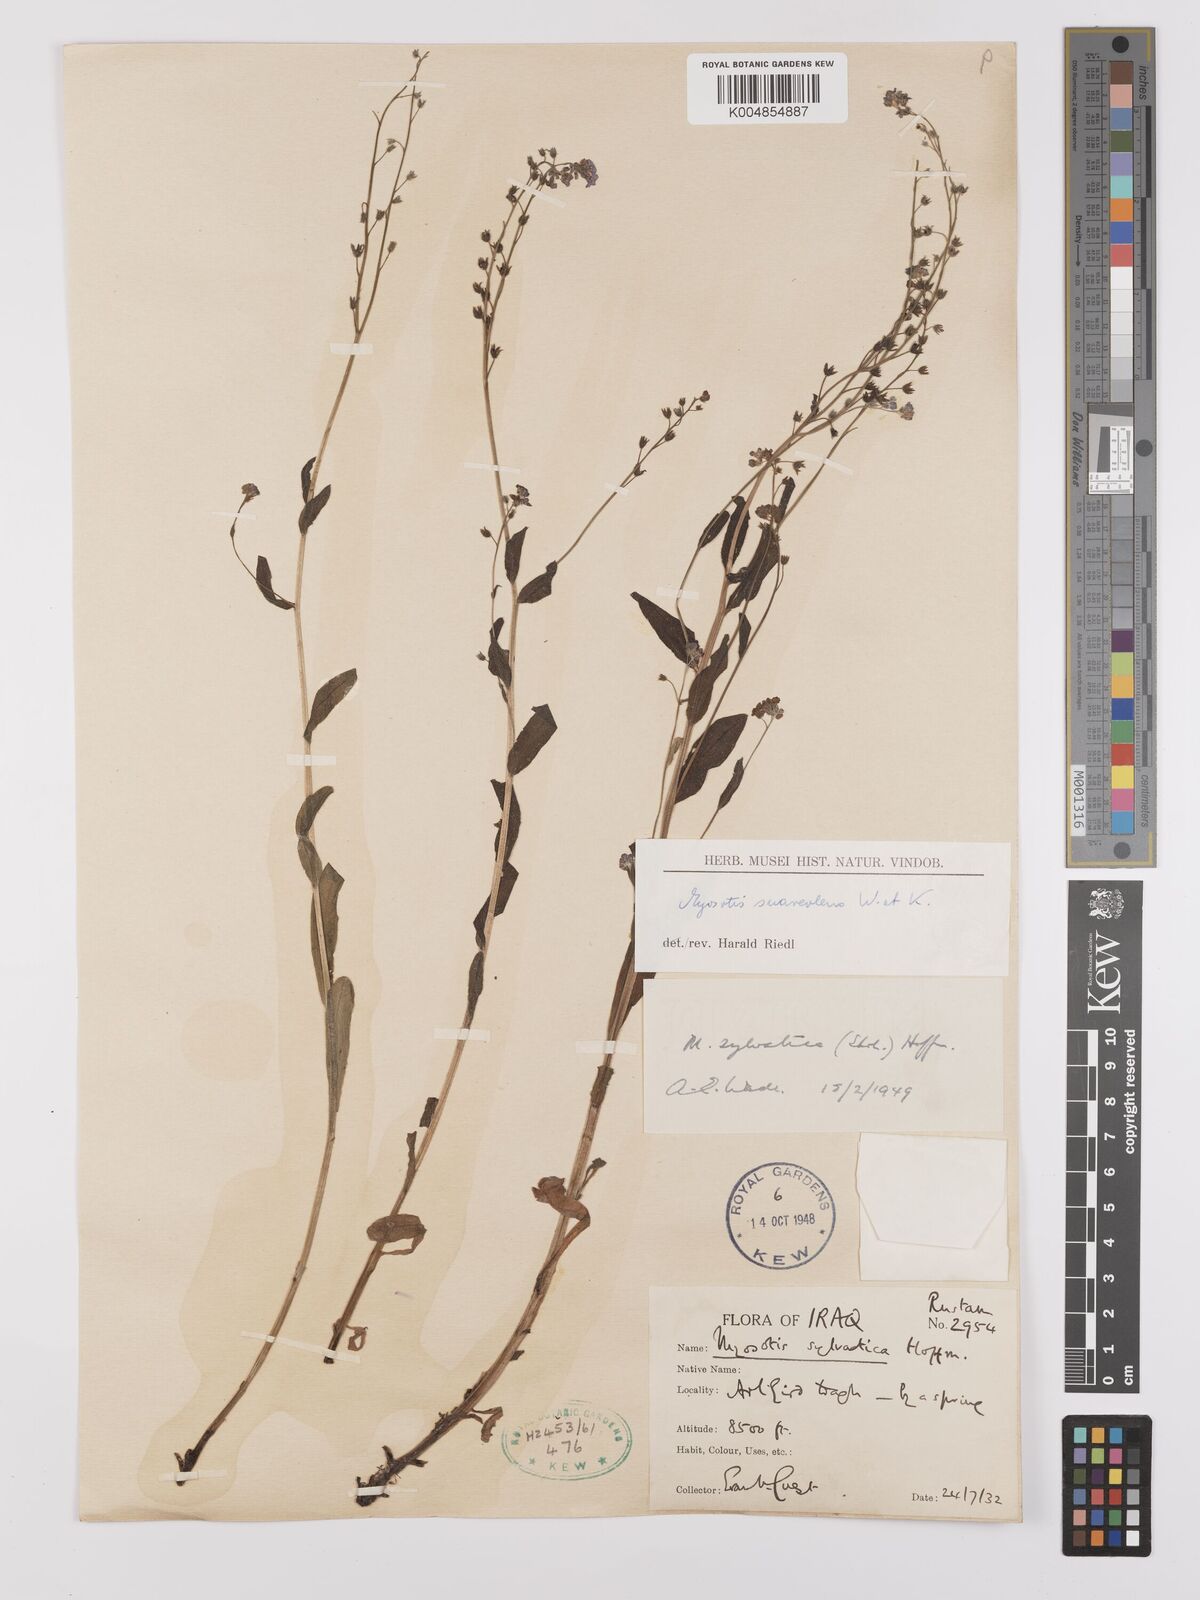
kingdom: Plantae
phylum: Tracheophyta
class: Magnoliopsida
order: Boraginales
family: Boraginaceae
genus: Myosotis
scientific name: Myosotis
